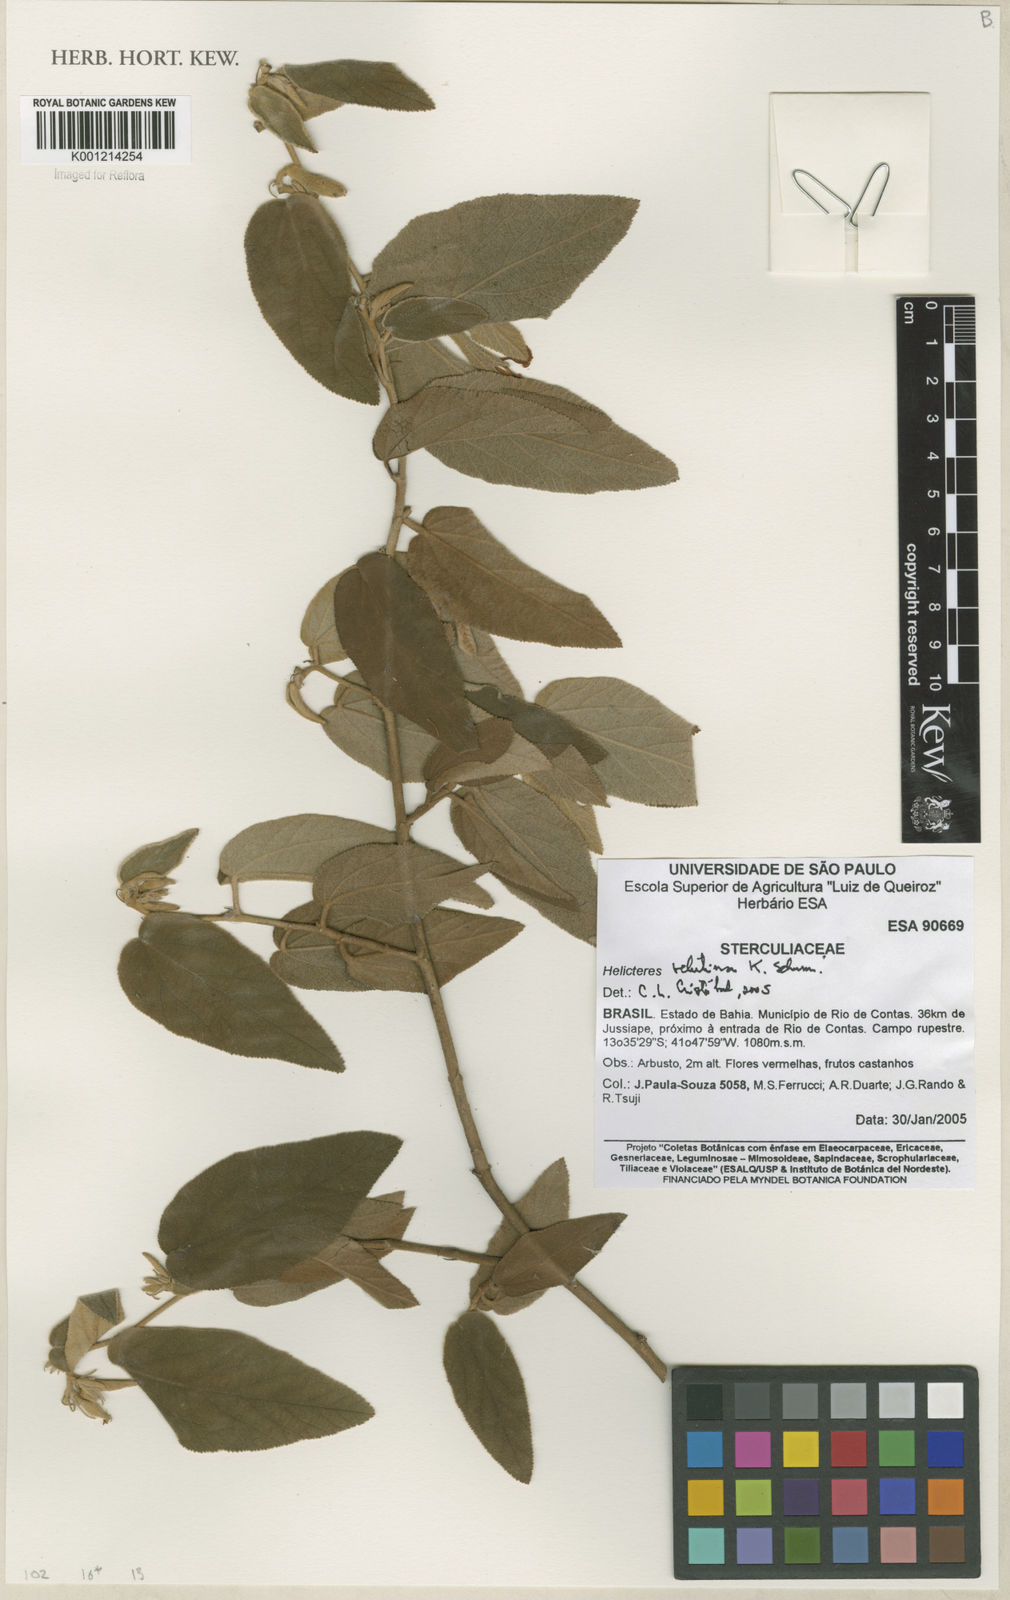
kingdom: Plantae
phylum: Tracheophyta
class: Magnoliopsida
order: Malvales
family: Malvaceae
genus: Helicteres
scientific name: Helicteres velutina
